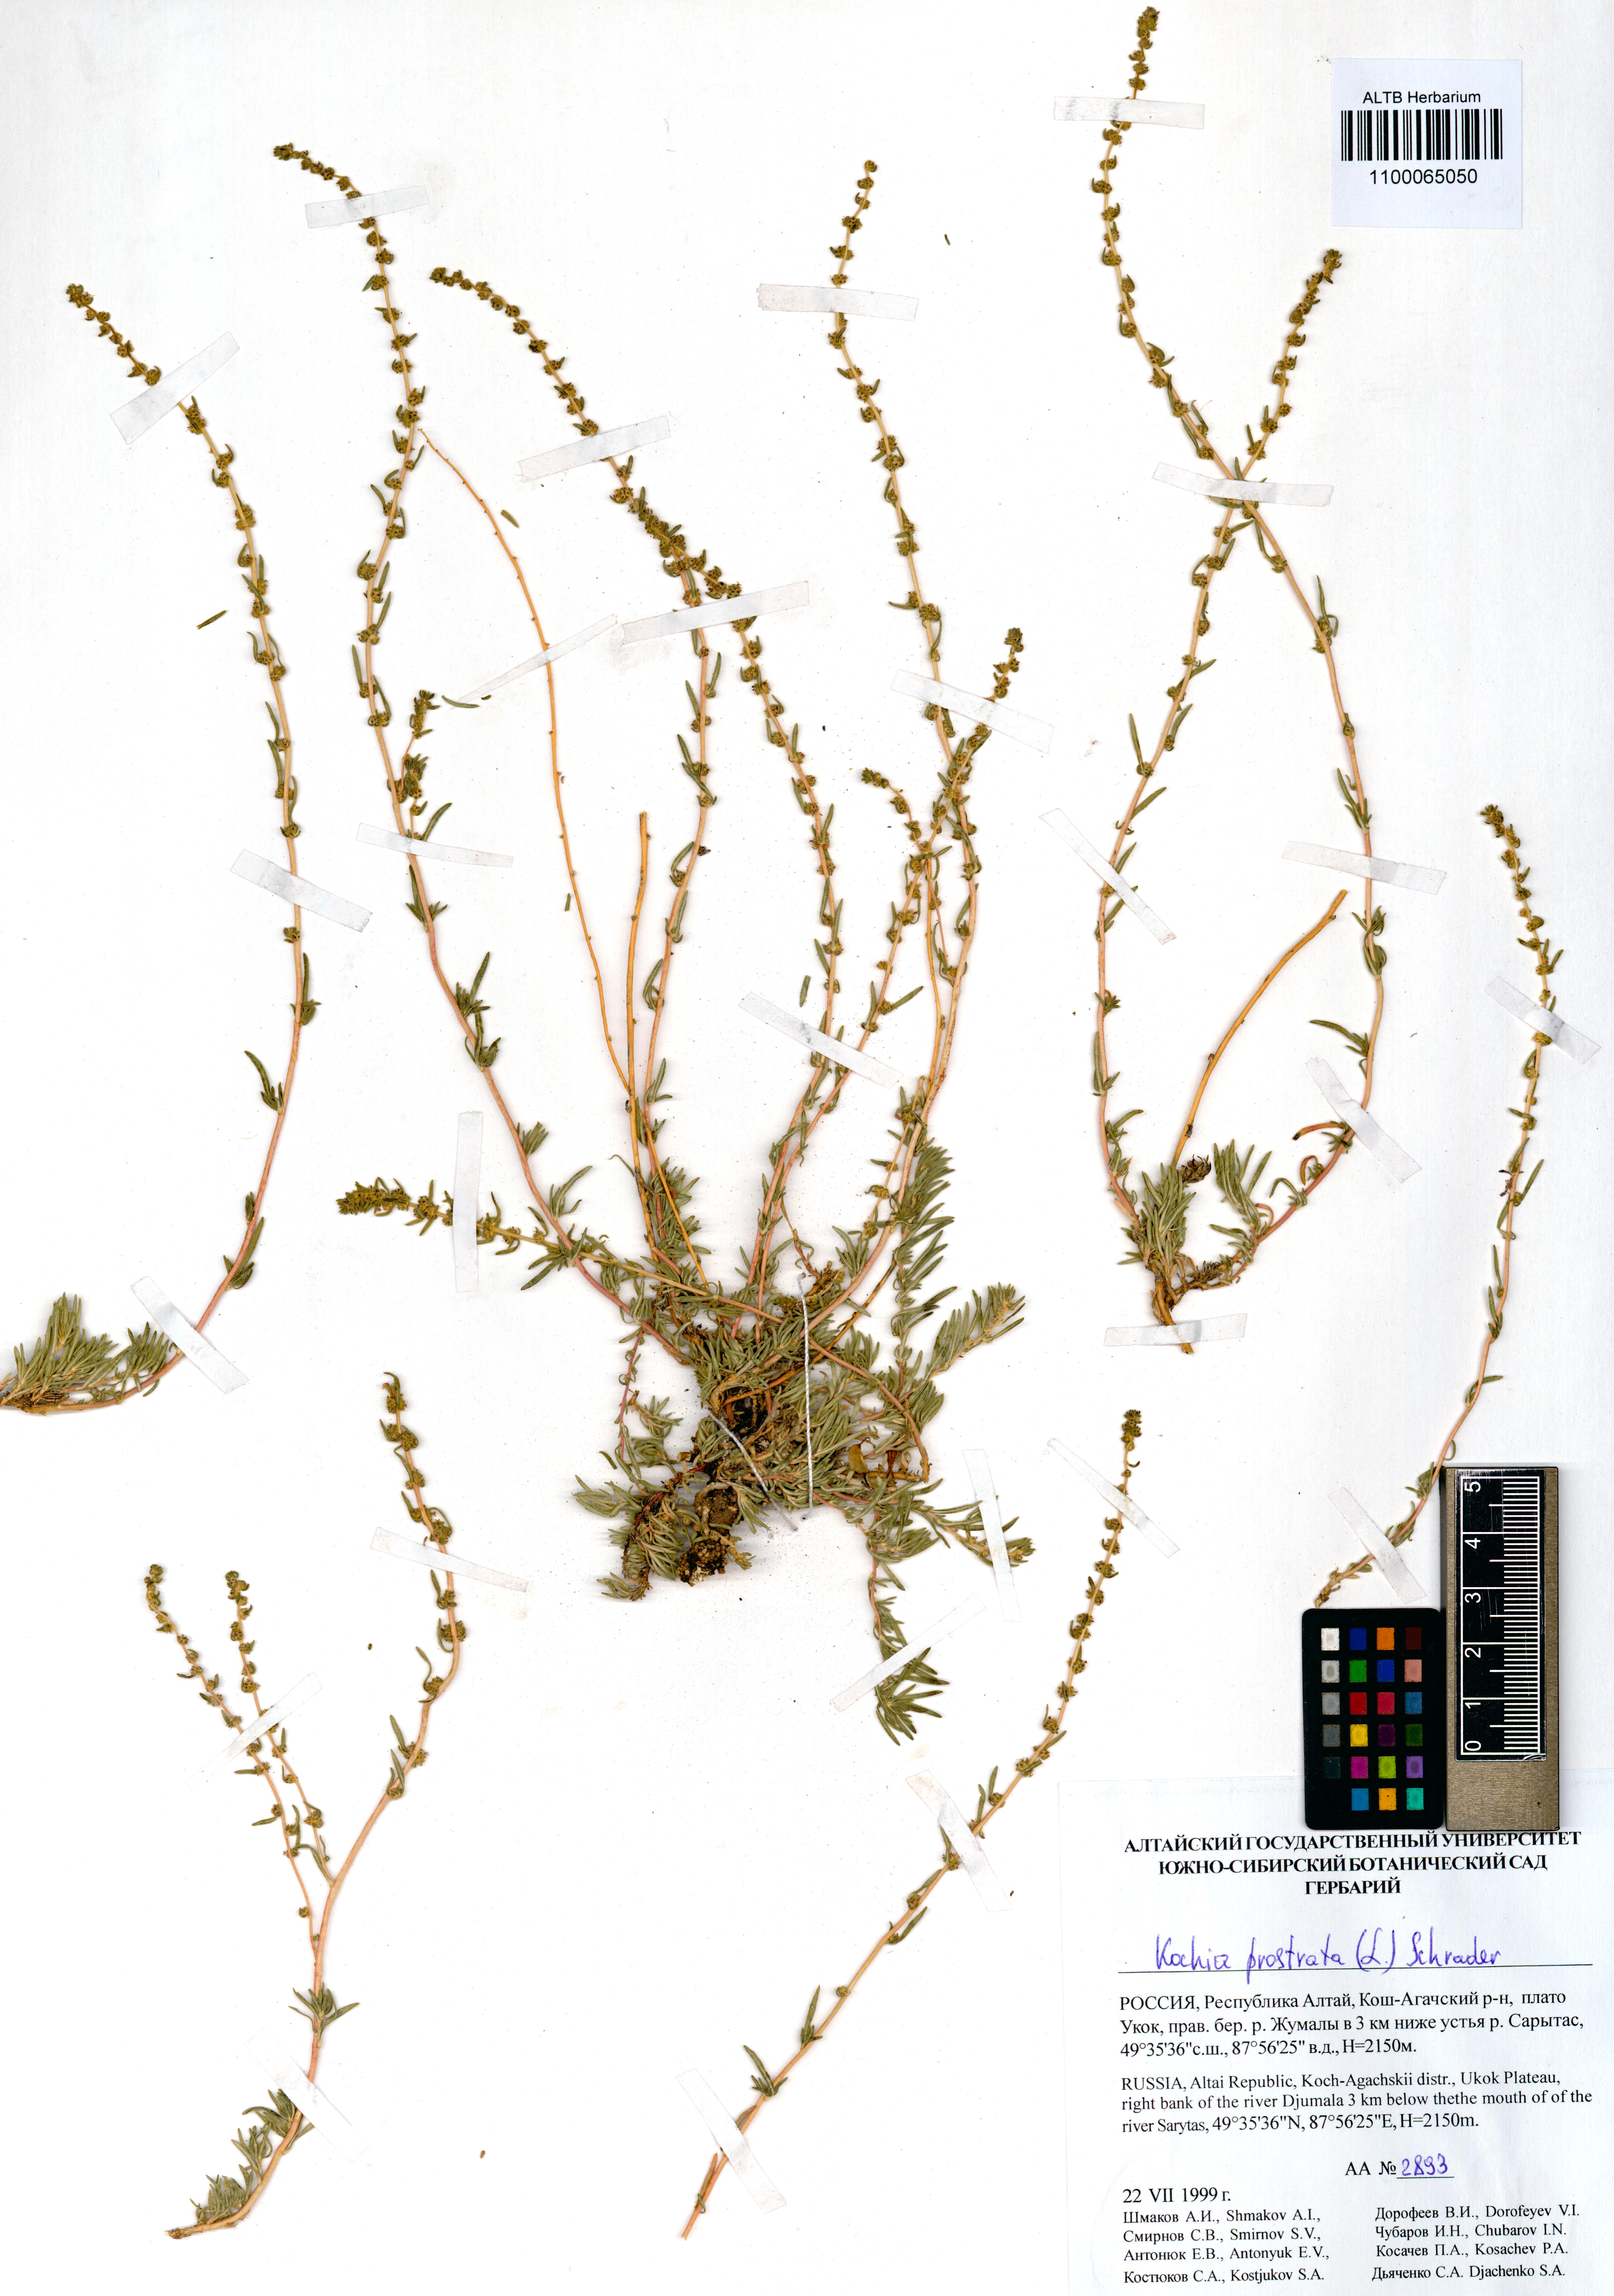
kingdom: Plantae
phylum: Tracheophyta
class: Magnoliopsida
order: Caryophyllales
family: Amaranthaceae
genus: Bassia
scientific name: Bassia prostrata
